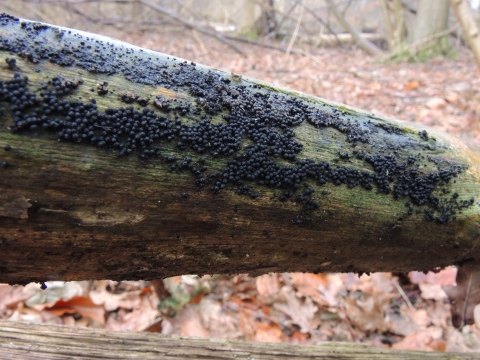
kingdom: Fungi
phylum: Ascomycota
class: Sordariomycetes
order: Coronophorales
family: Bertiaceae
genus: Bertia
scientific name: Bertia moriformis
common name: almindelig morbærkerne
